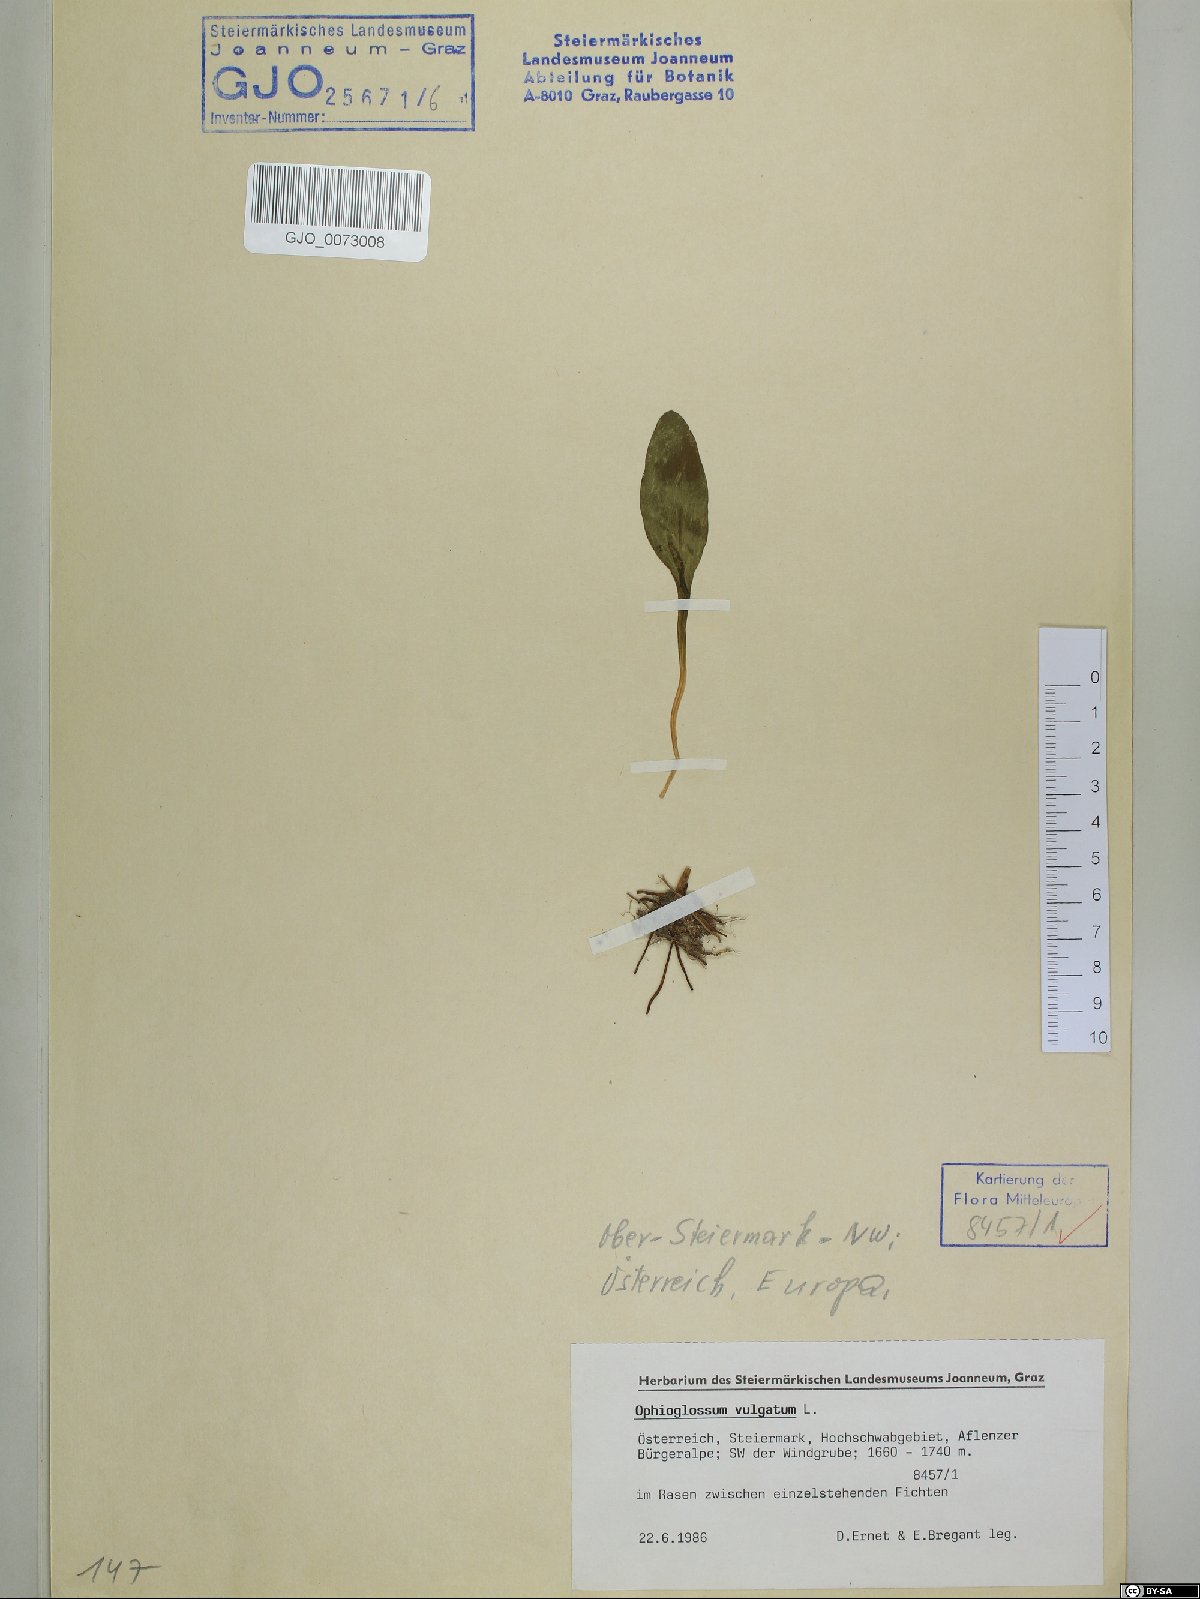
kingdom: Plantae
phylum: Tracheophyta
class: Polypodiopsida
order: Ophioglossales
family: Ophioglossaceae
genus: Ophioglossum
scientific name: Ophioglossum vulgatum
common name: Adder's-tongue
